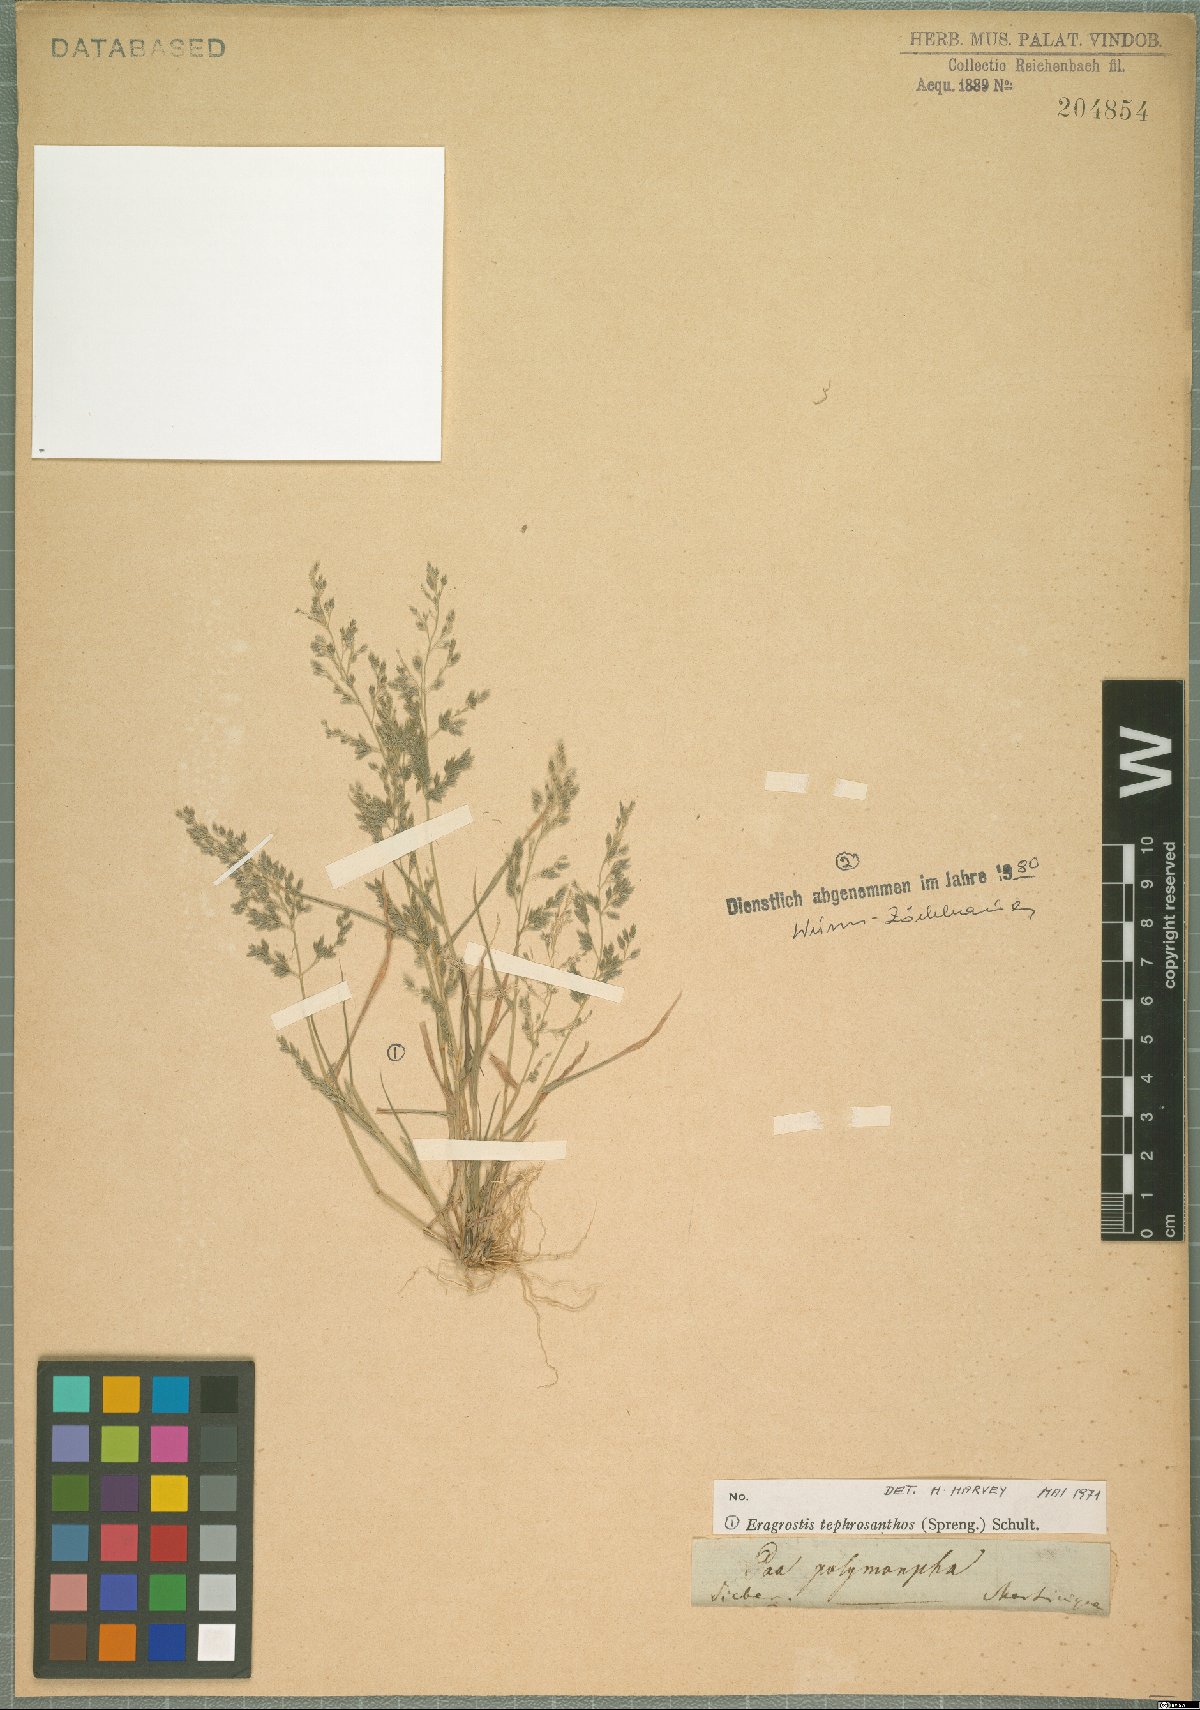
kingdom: Plantae
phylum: Tracheophyta
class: Liliopsida
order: Poales
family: Poaceae
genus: Eragrostis
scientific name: Eragrostis tephrosanthos
